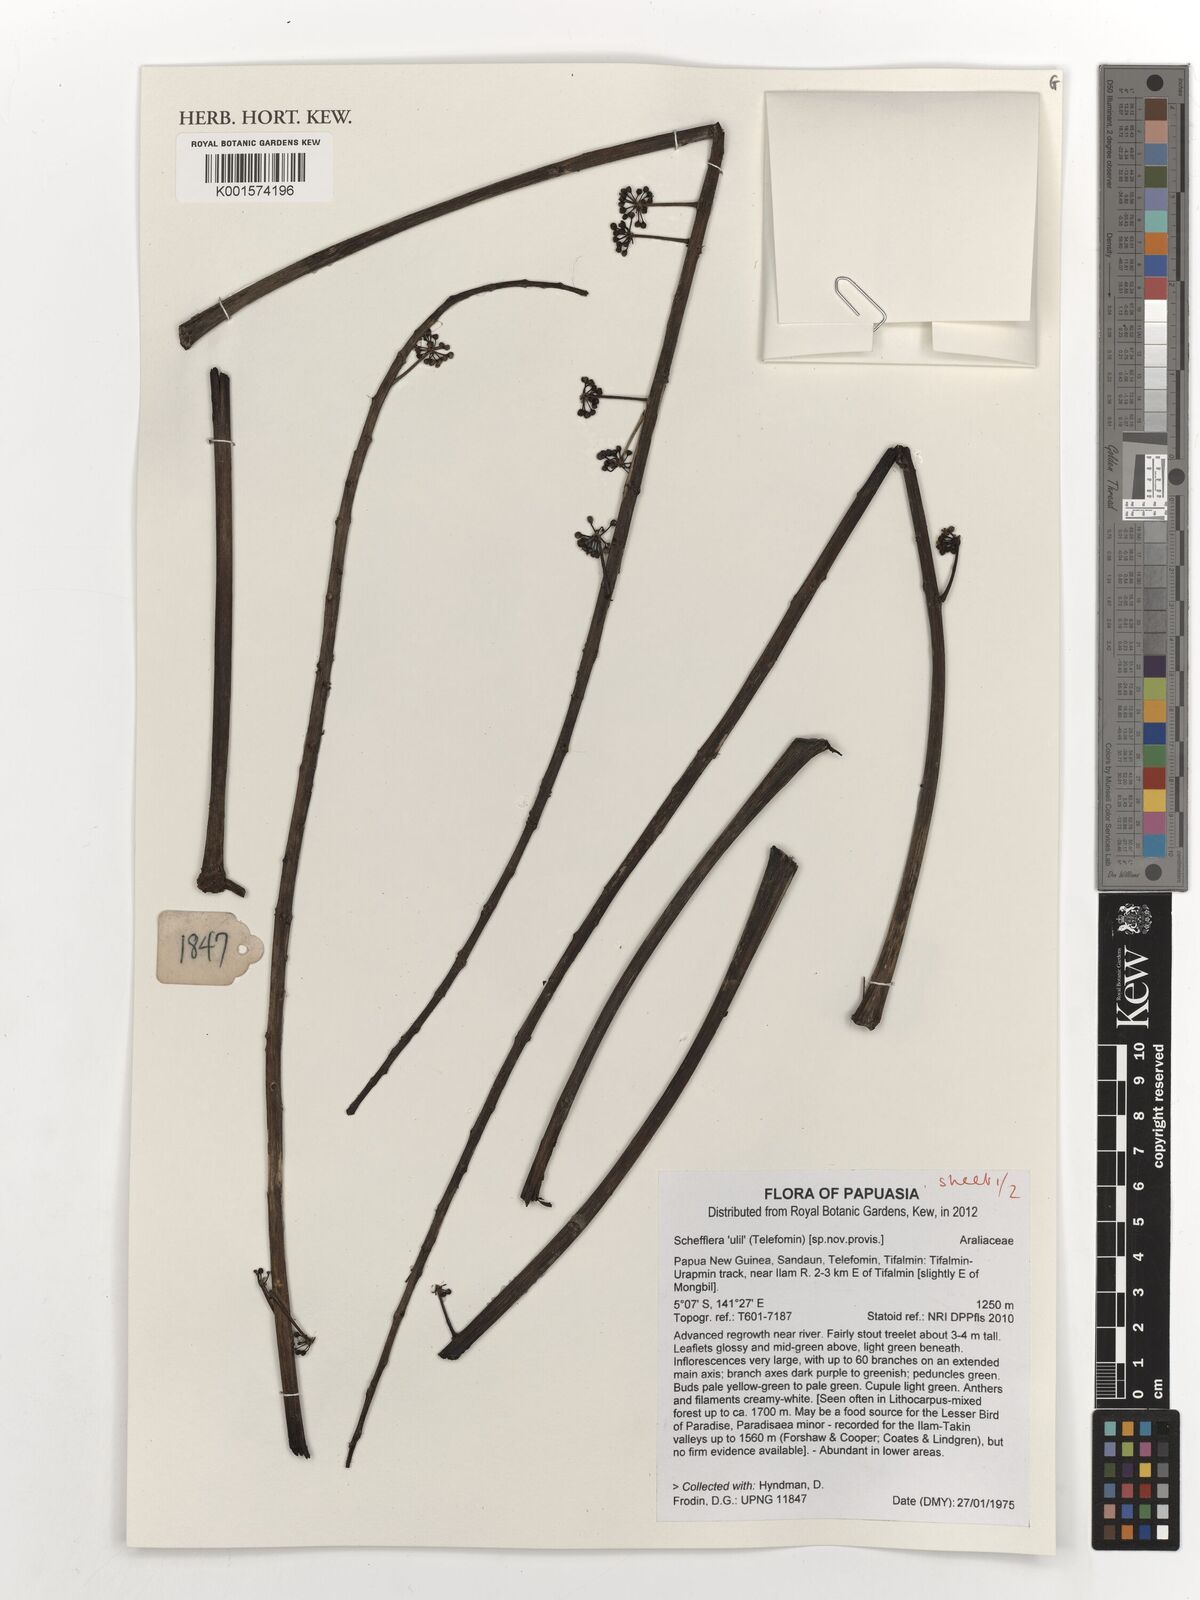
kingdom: Plantae
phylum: Tracheophyta
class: Magnoliopsida
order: Apiales
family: Araliaceae
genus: Schefflera
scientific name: Schefflera
